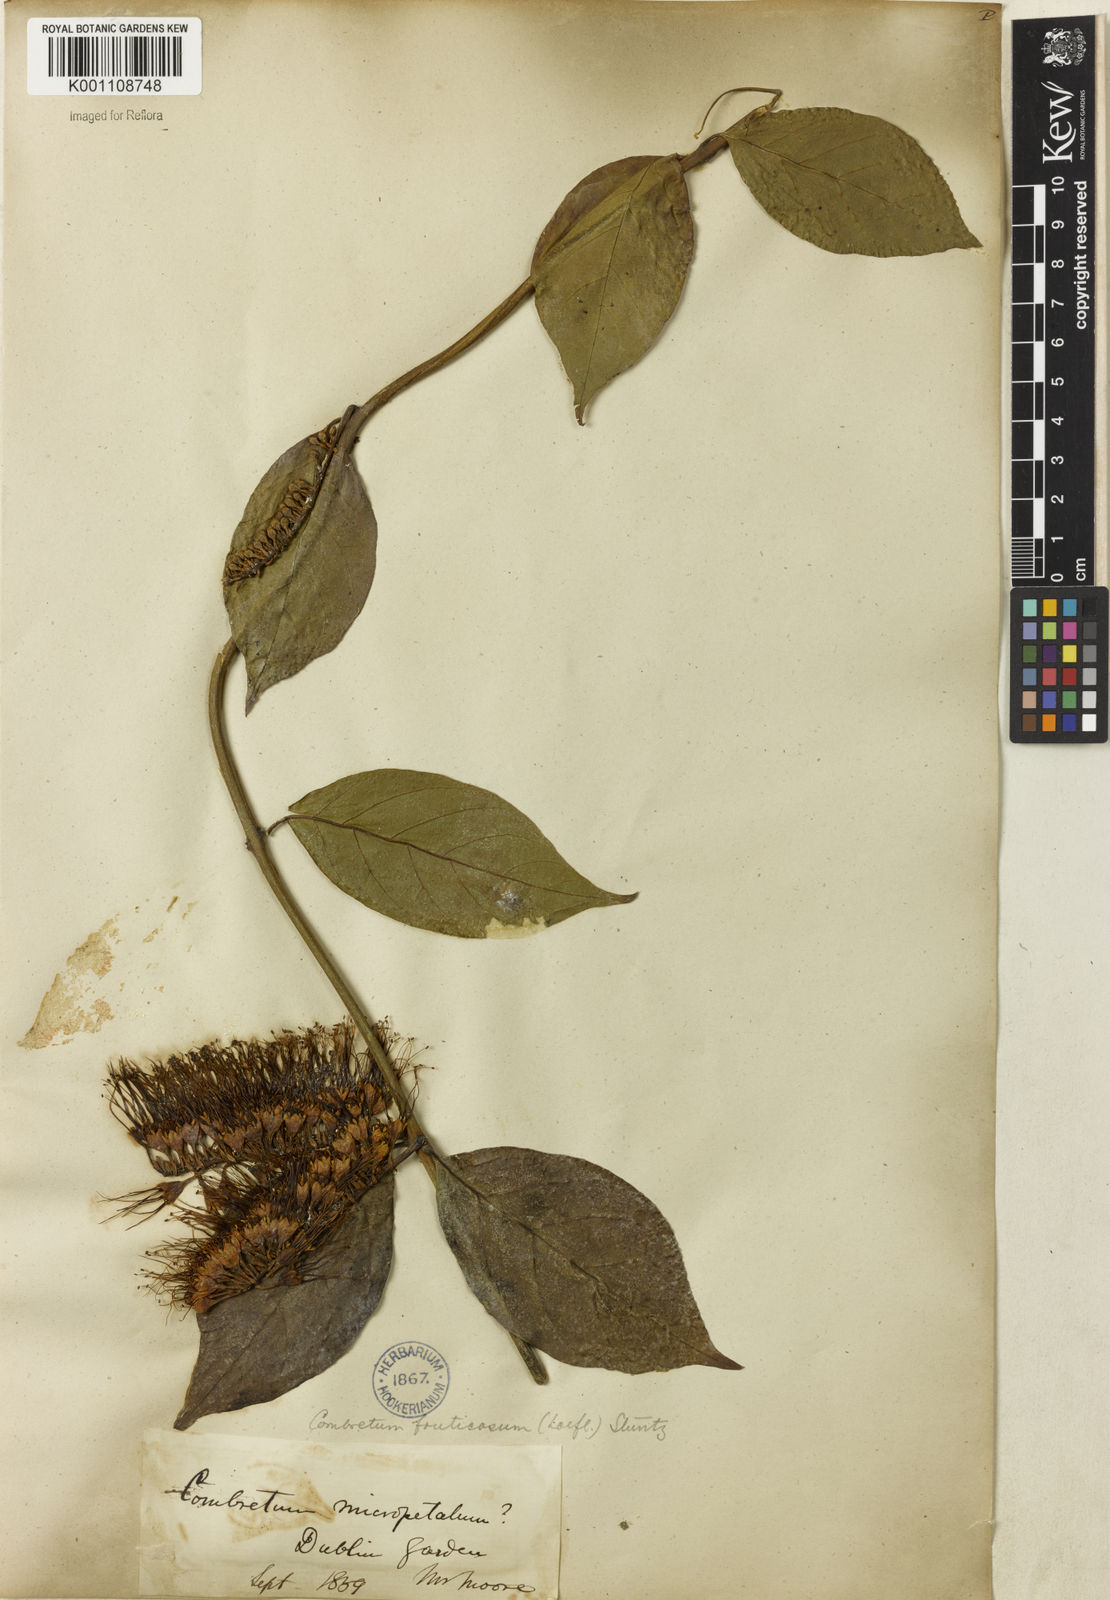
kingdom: Plantae
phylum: Tracheophyta
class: Magnoliopsida
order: Myrtales
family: Combretaceae
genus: Combretum
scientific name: Combretum fruticosum
